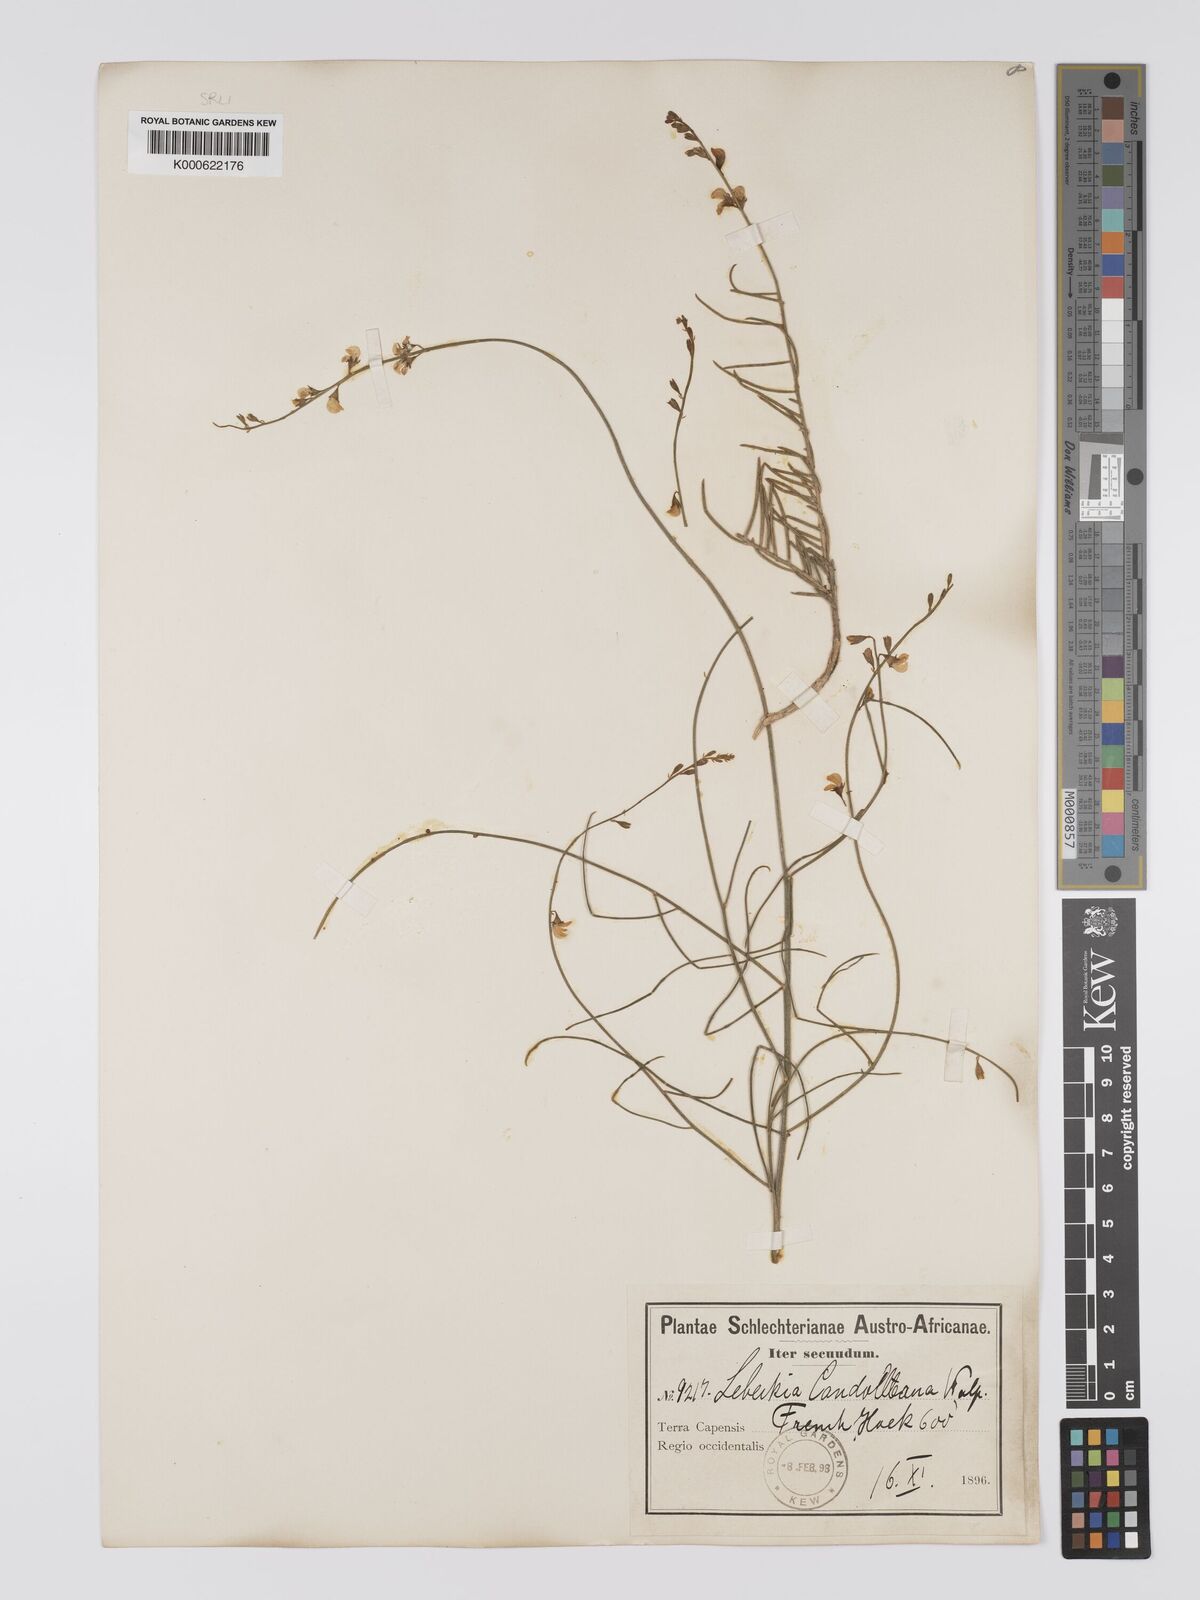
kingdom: Plantae
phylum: Tracheophyta
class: Magnoliopsida
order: Fabales
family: Fabaceae
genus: Aspalathus
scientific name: Aspalathus linearis
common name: Rooibos-tea
